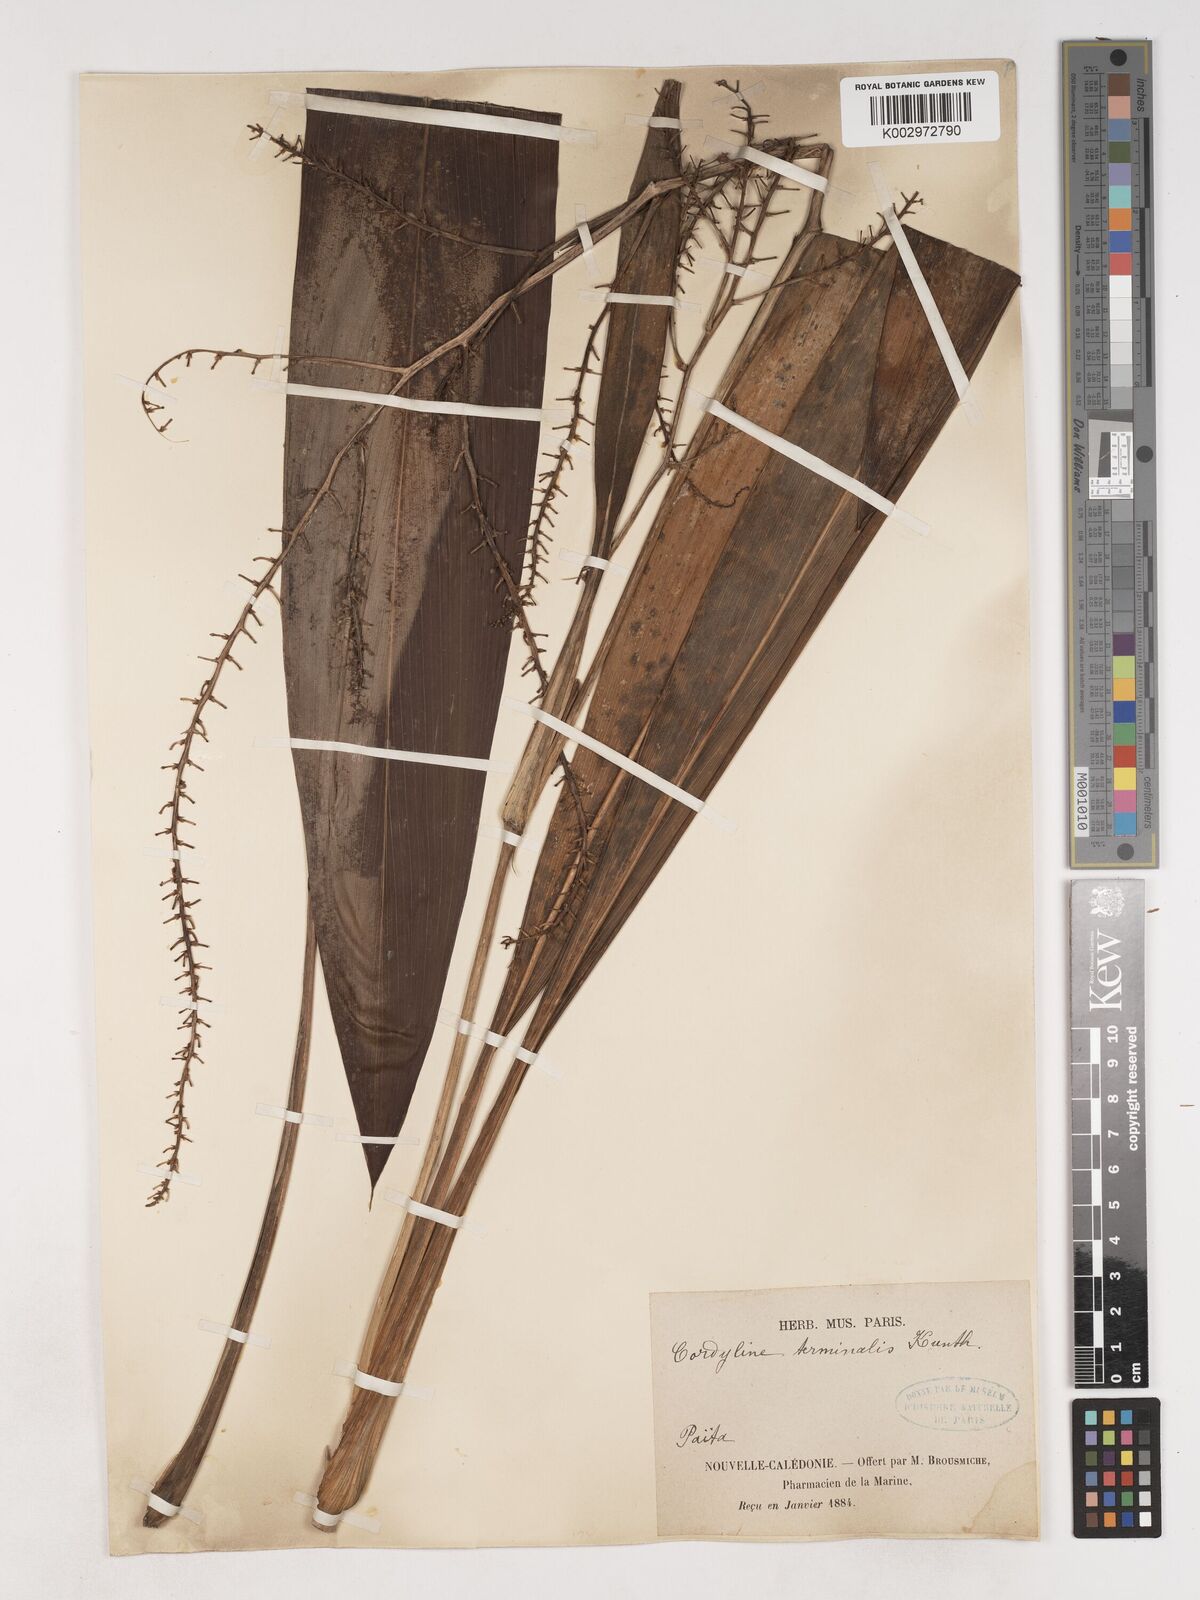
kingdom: Plantae
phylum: Tracheophyta
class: Liliopsida
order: Asparagales
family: Asparagaceae
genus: Cordyline
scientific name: Cordyline fruticosa
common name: Good-luck-plant
